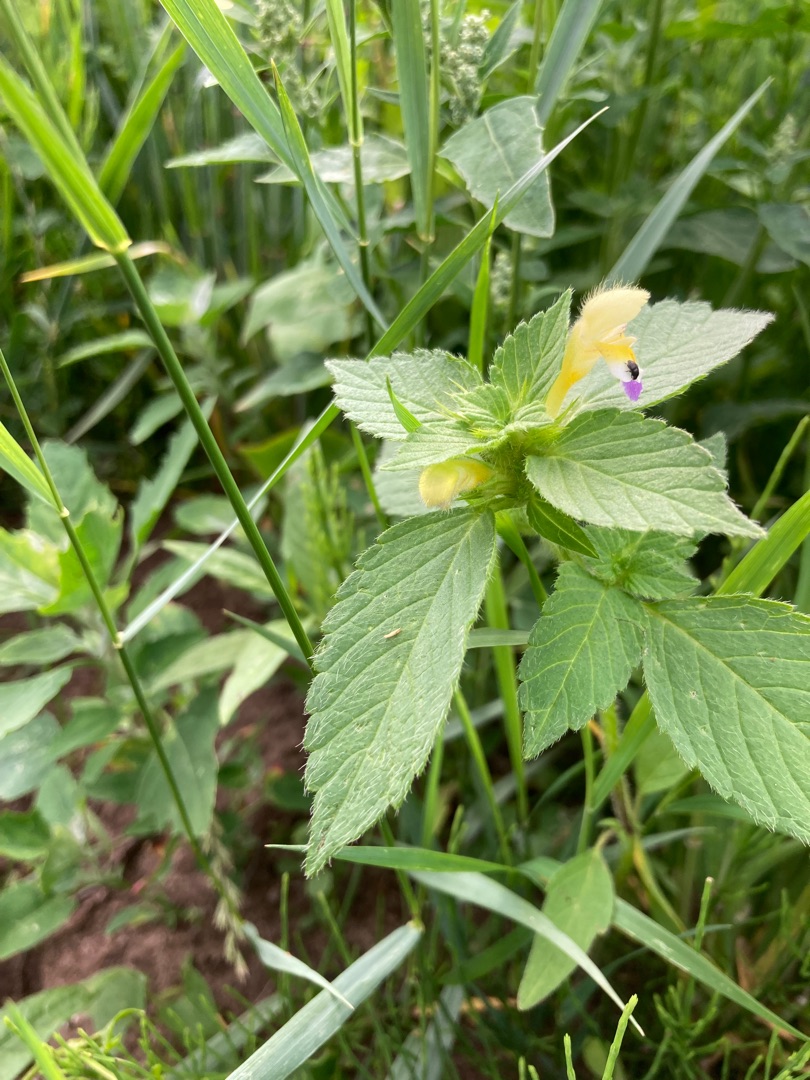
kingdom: Plantae
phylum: Tracheophyta
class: Magnoliopsida
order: Lamiales
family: Lamiaceae
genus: Galeopsis
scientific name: Galeopsis speciosa
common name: Hamp-hanekro
